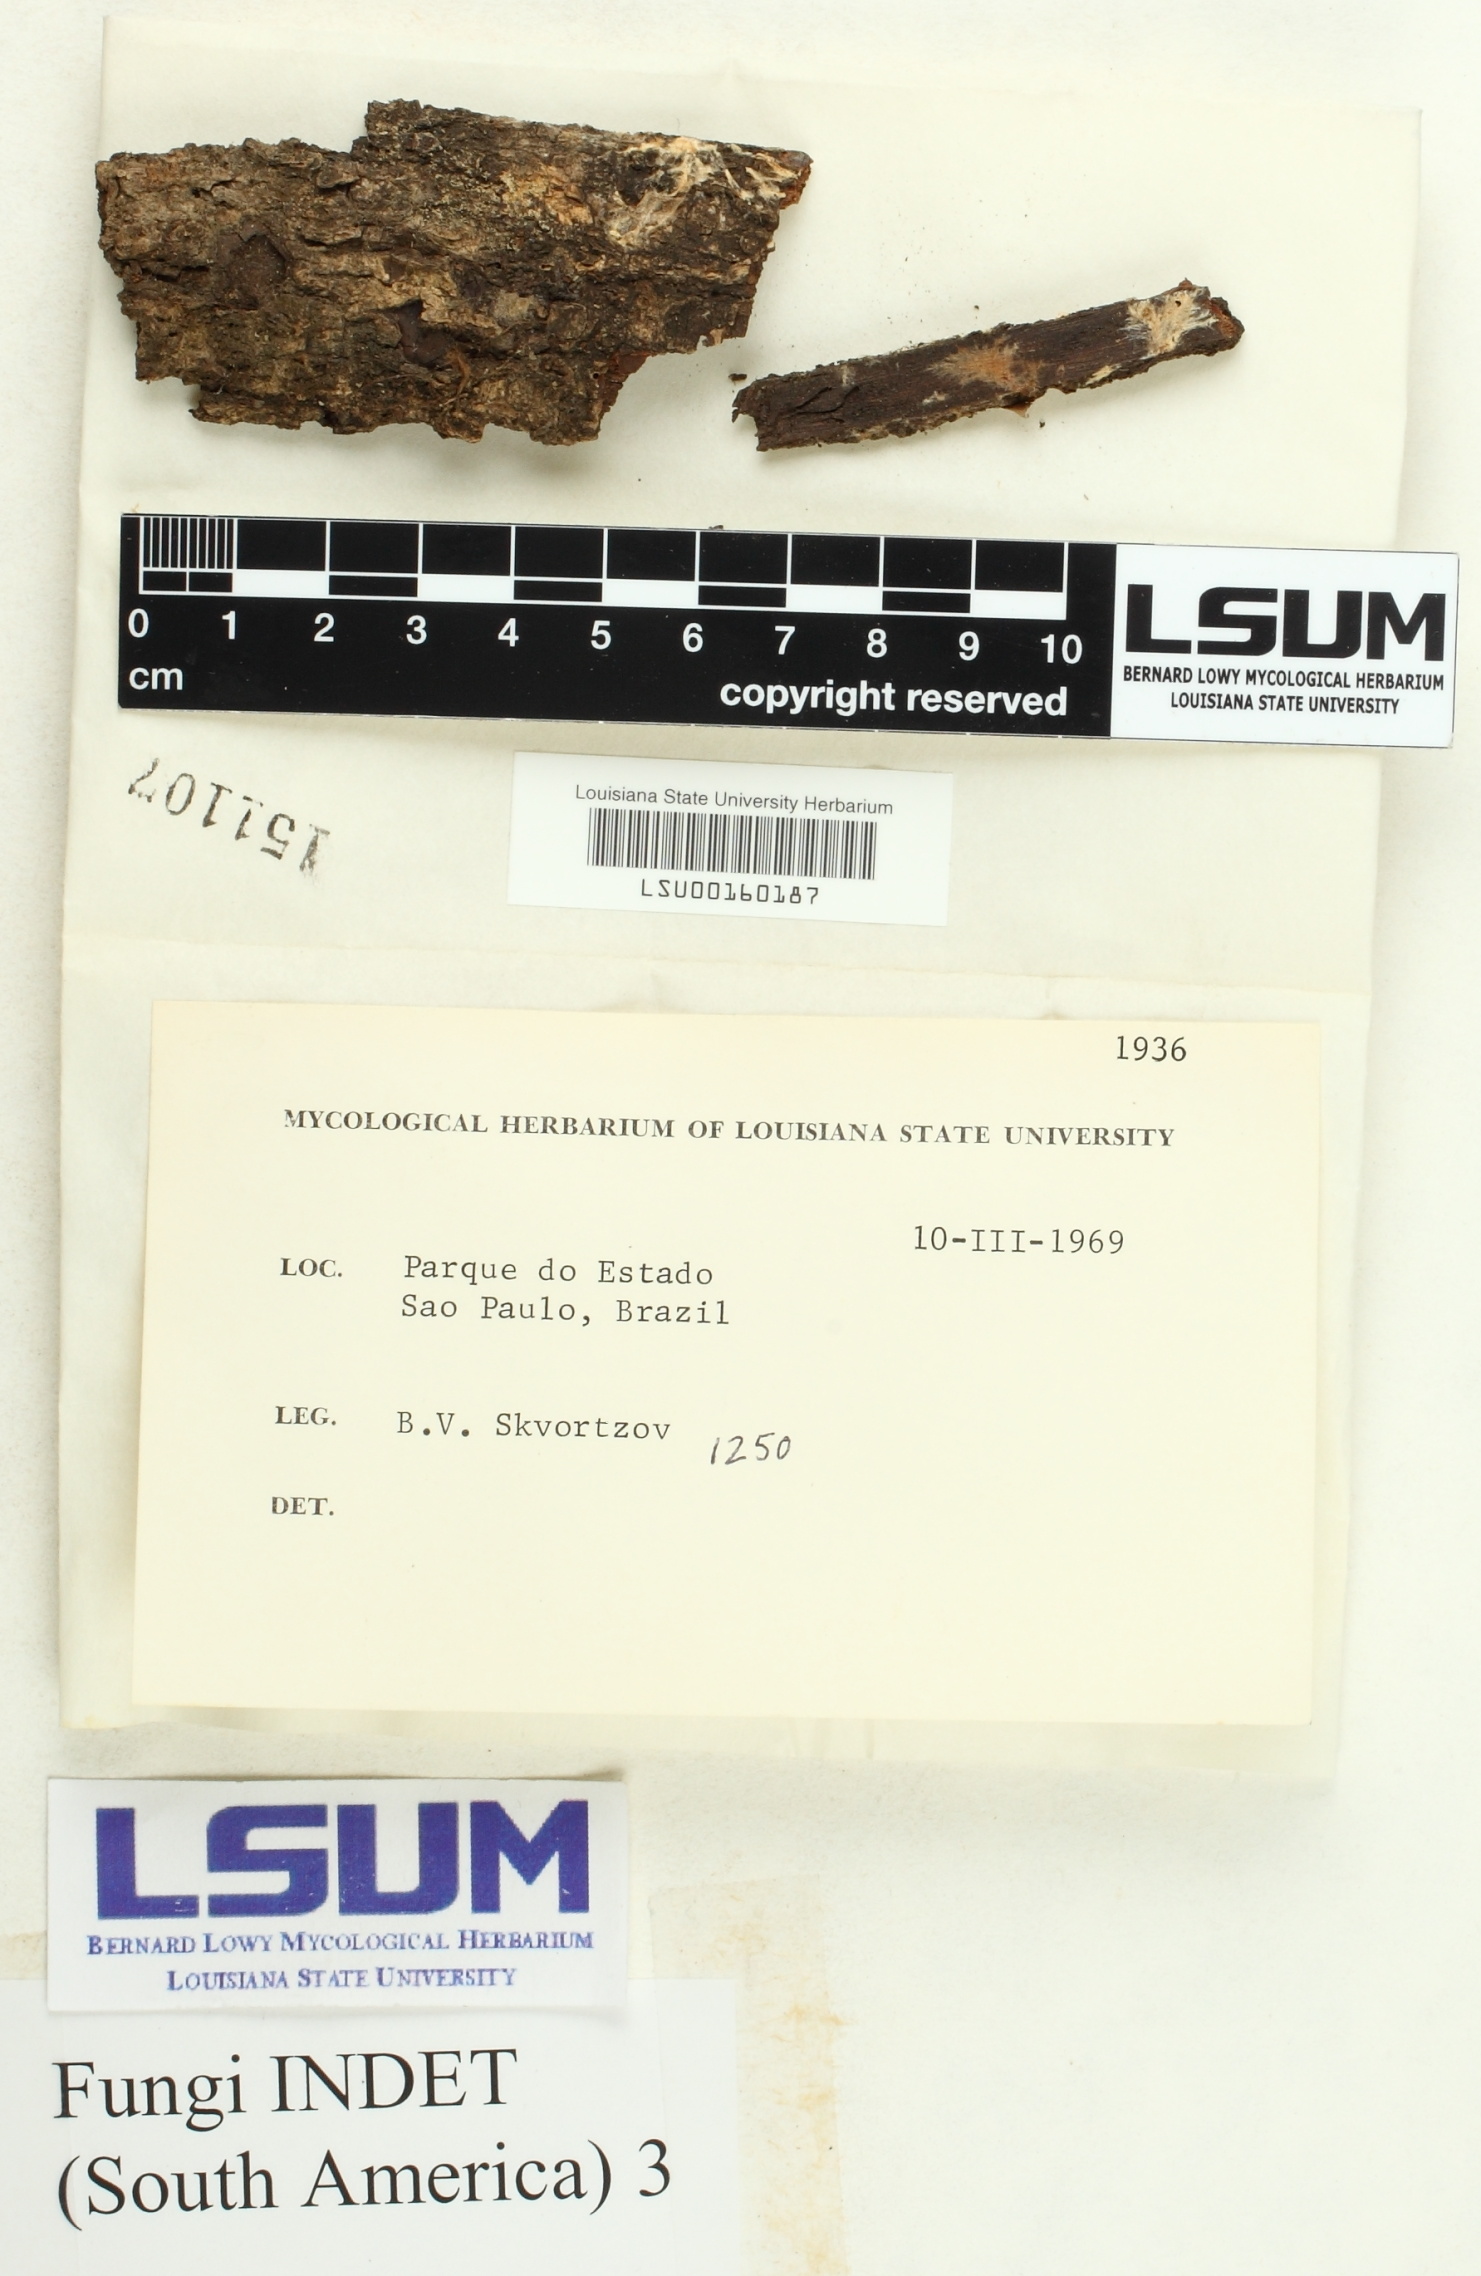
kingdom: Fungi
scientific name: Fungi
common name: Fungi
